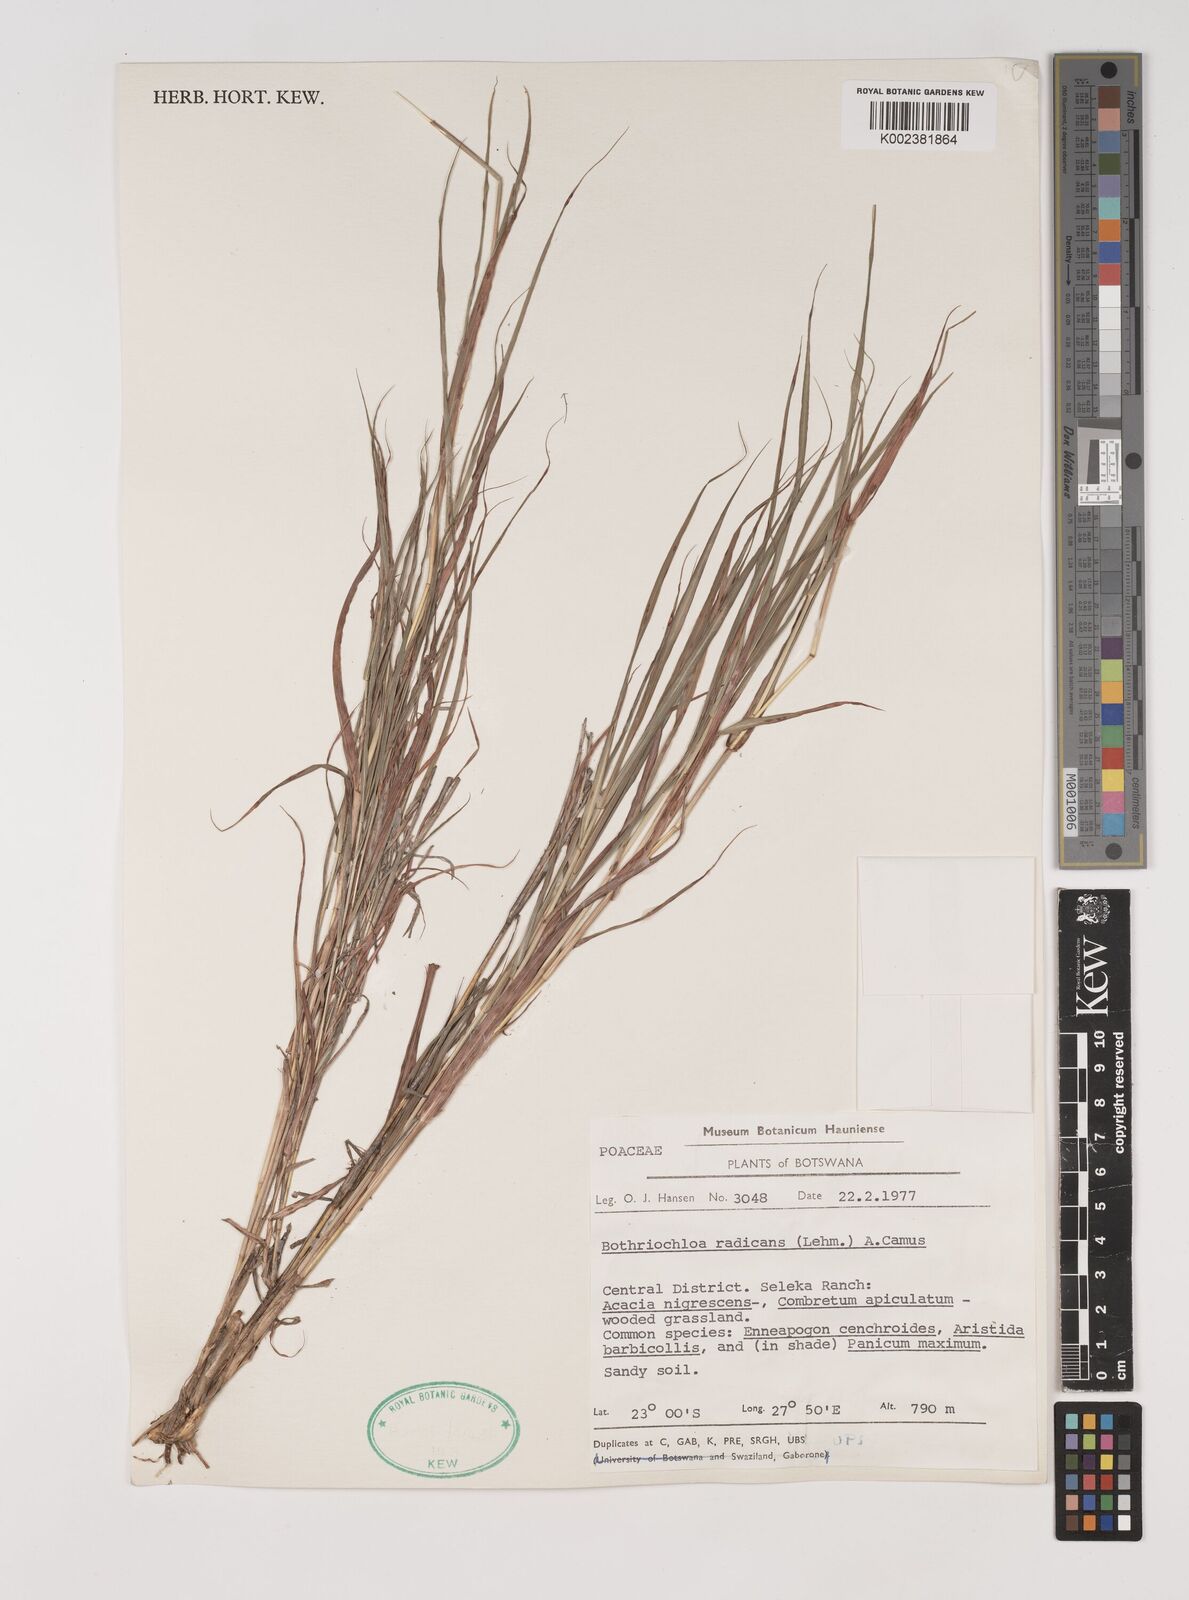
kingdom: Plantae
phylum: Tracheophyta
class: Liliopsida
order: Poales
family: Poaceae
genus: Bothriochloa
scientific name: Bothriochloa radicans
